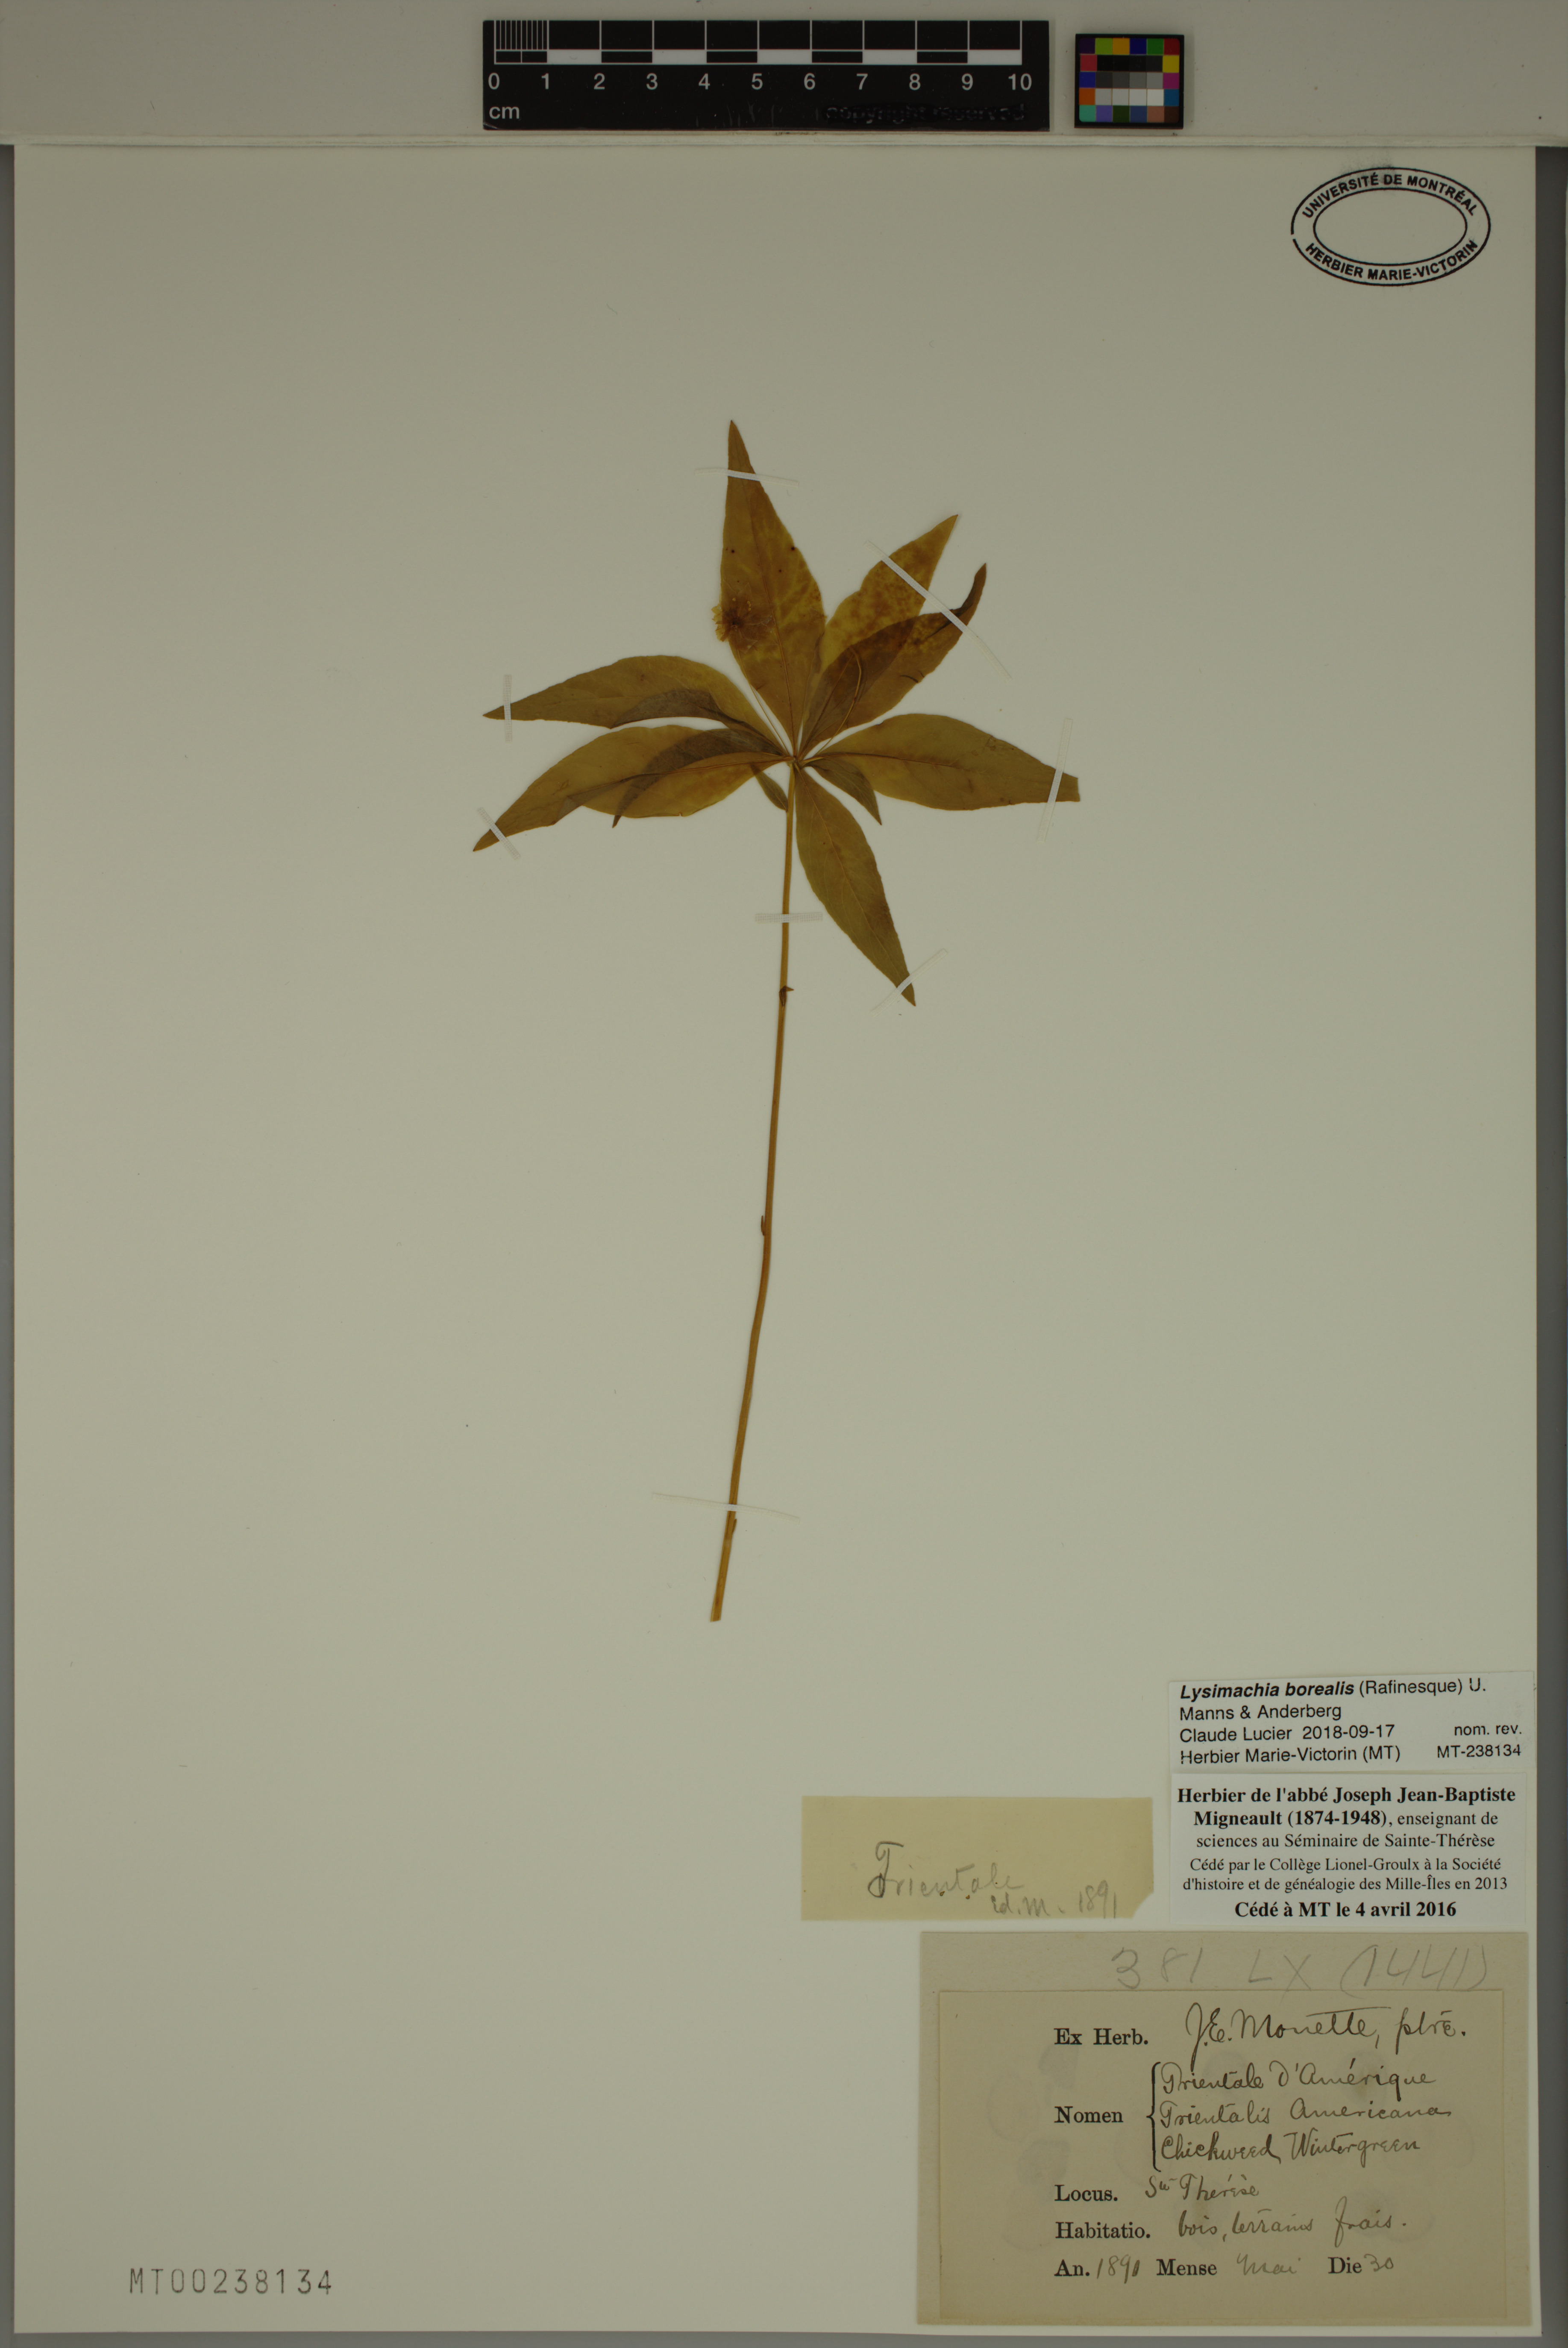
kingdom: Plantae
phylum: Tracheophyta
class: Magnoliopsida
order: Ericales
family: Primulaceae
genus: Lysimachia
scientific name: Lysimachia borealis
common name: American starflower
